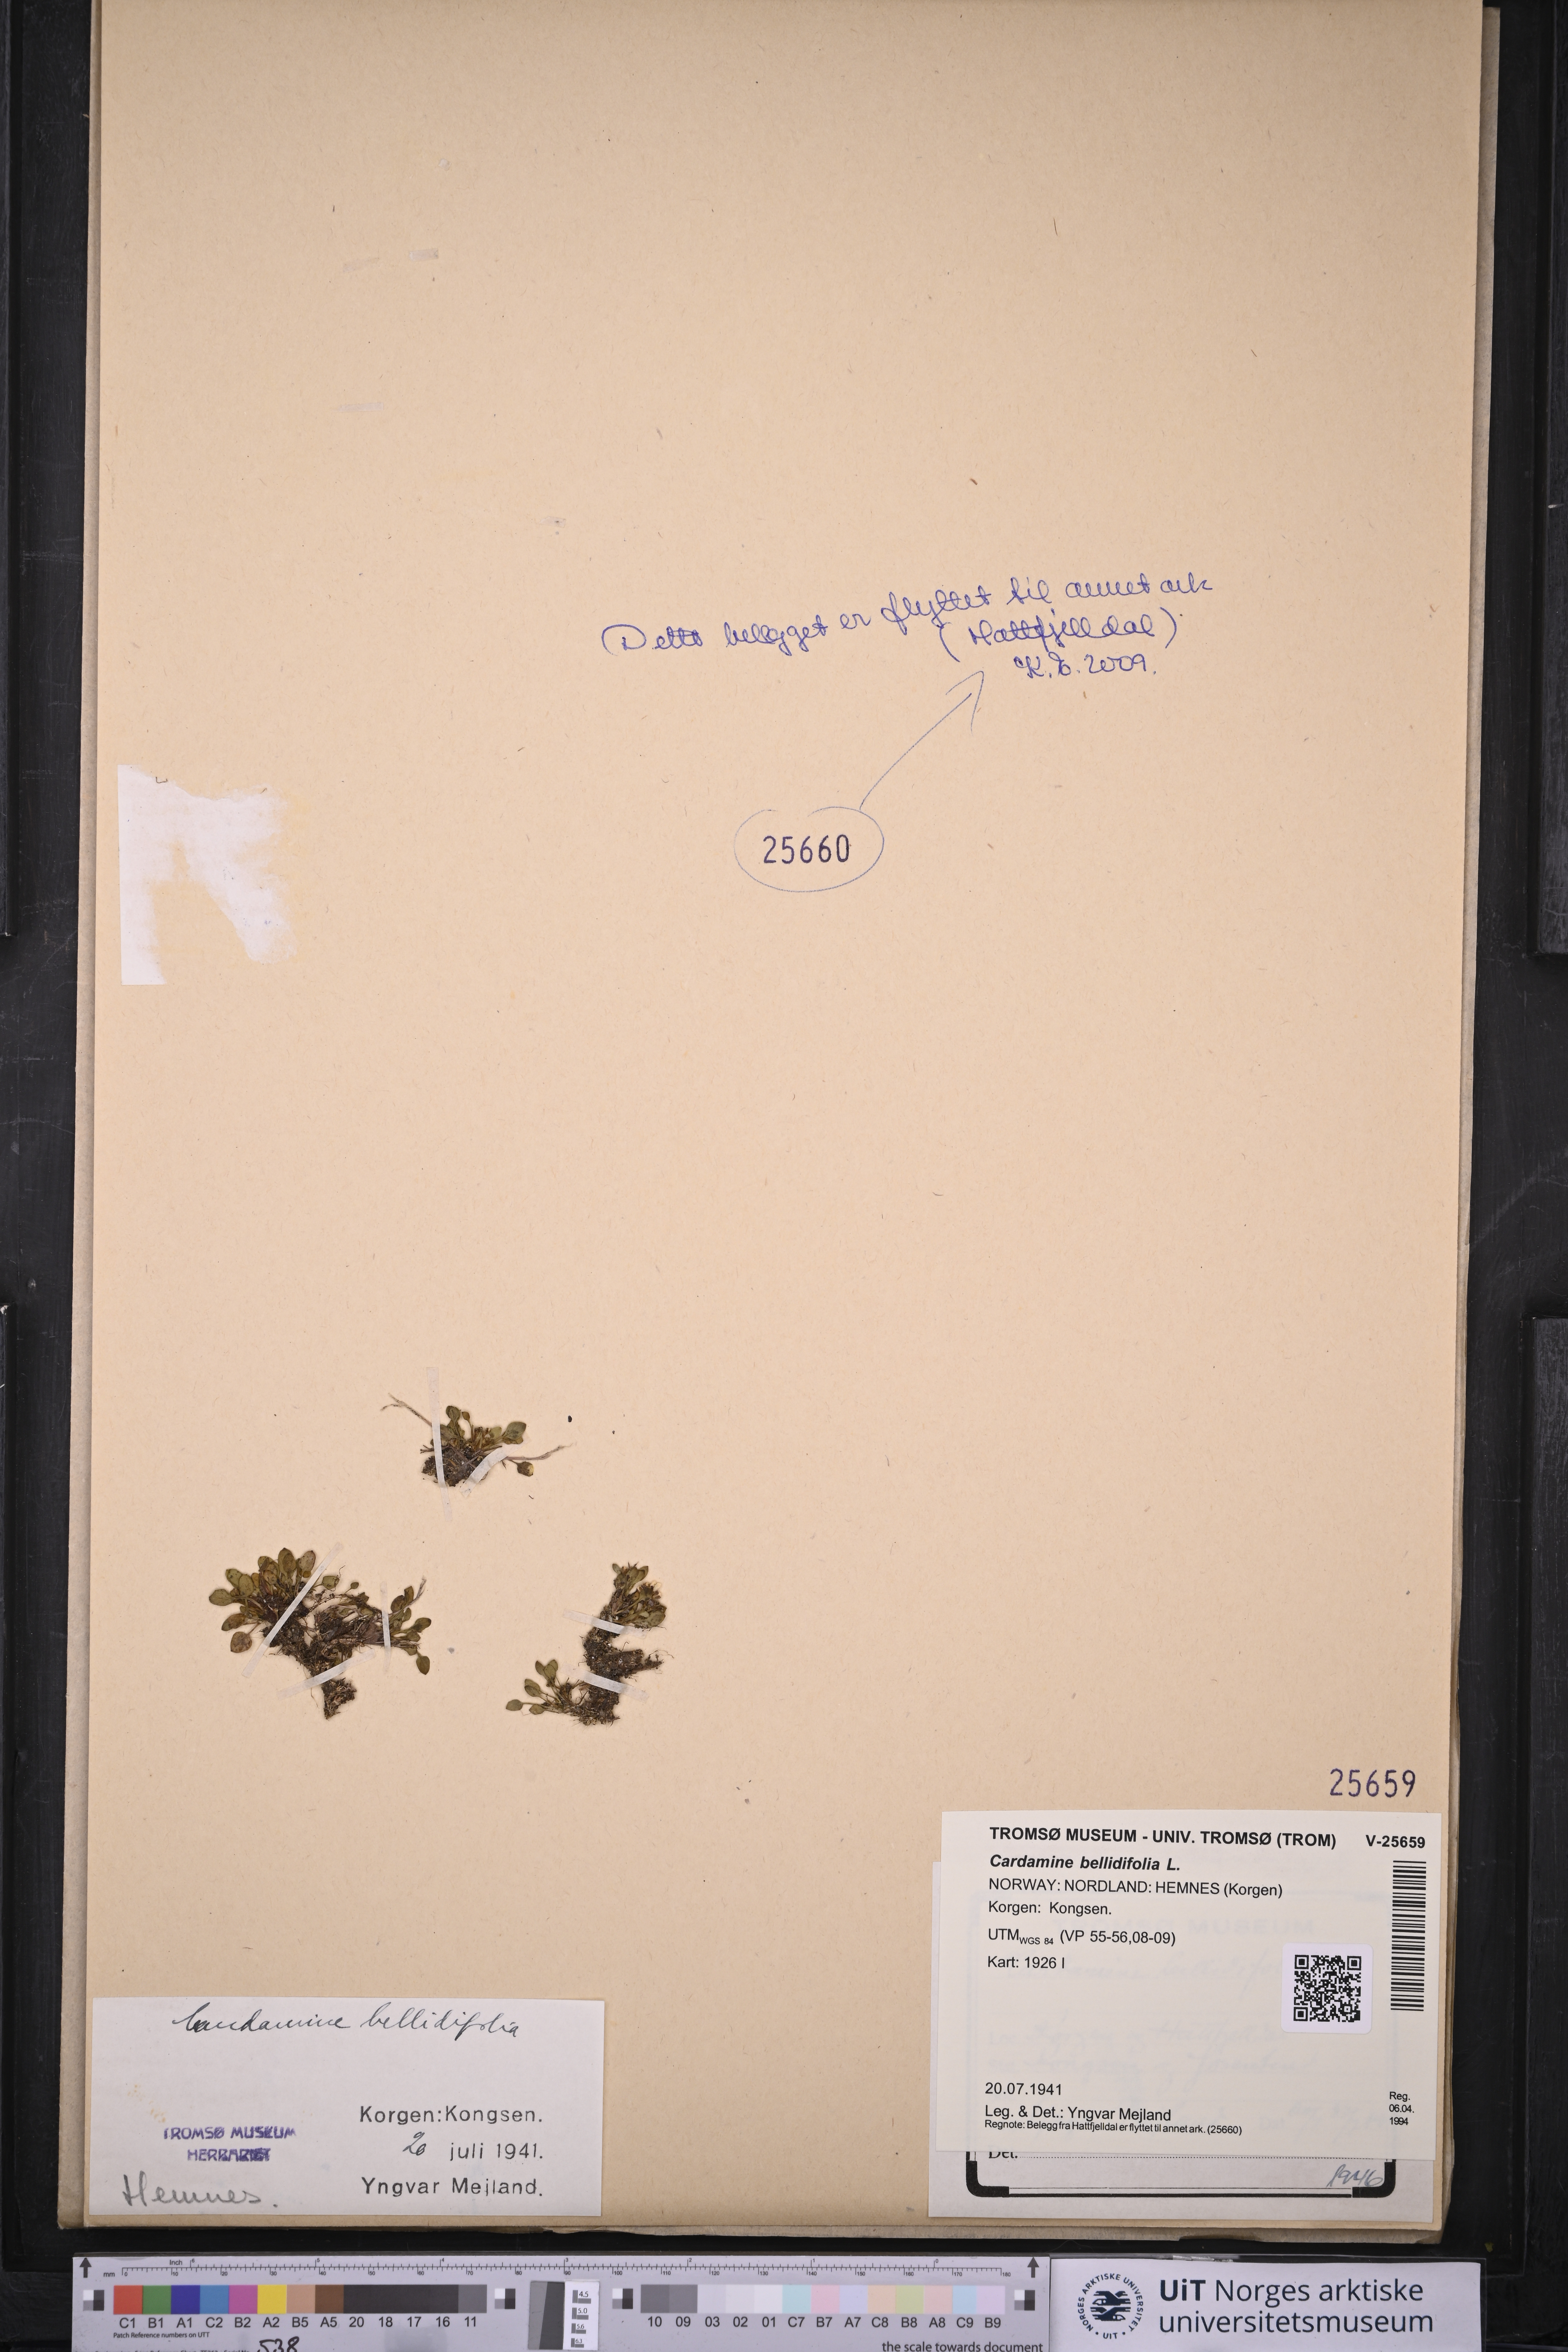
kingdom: Plantae
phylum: Tracheophyta
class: Magnoliopsida
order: Brassicales
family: Brassicaceae
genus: Cardamine
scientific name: Cardamine bellidifolia
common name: Alpine bittercress
